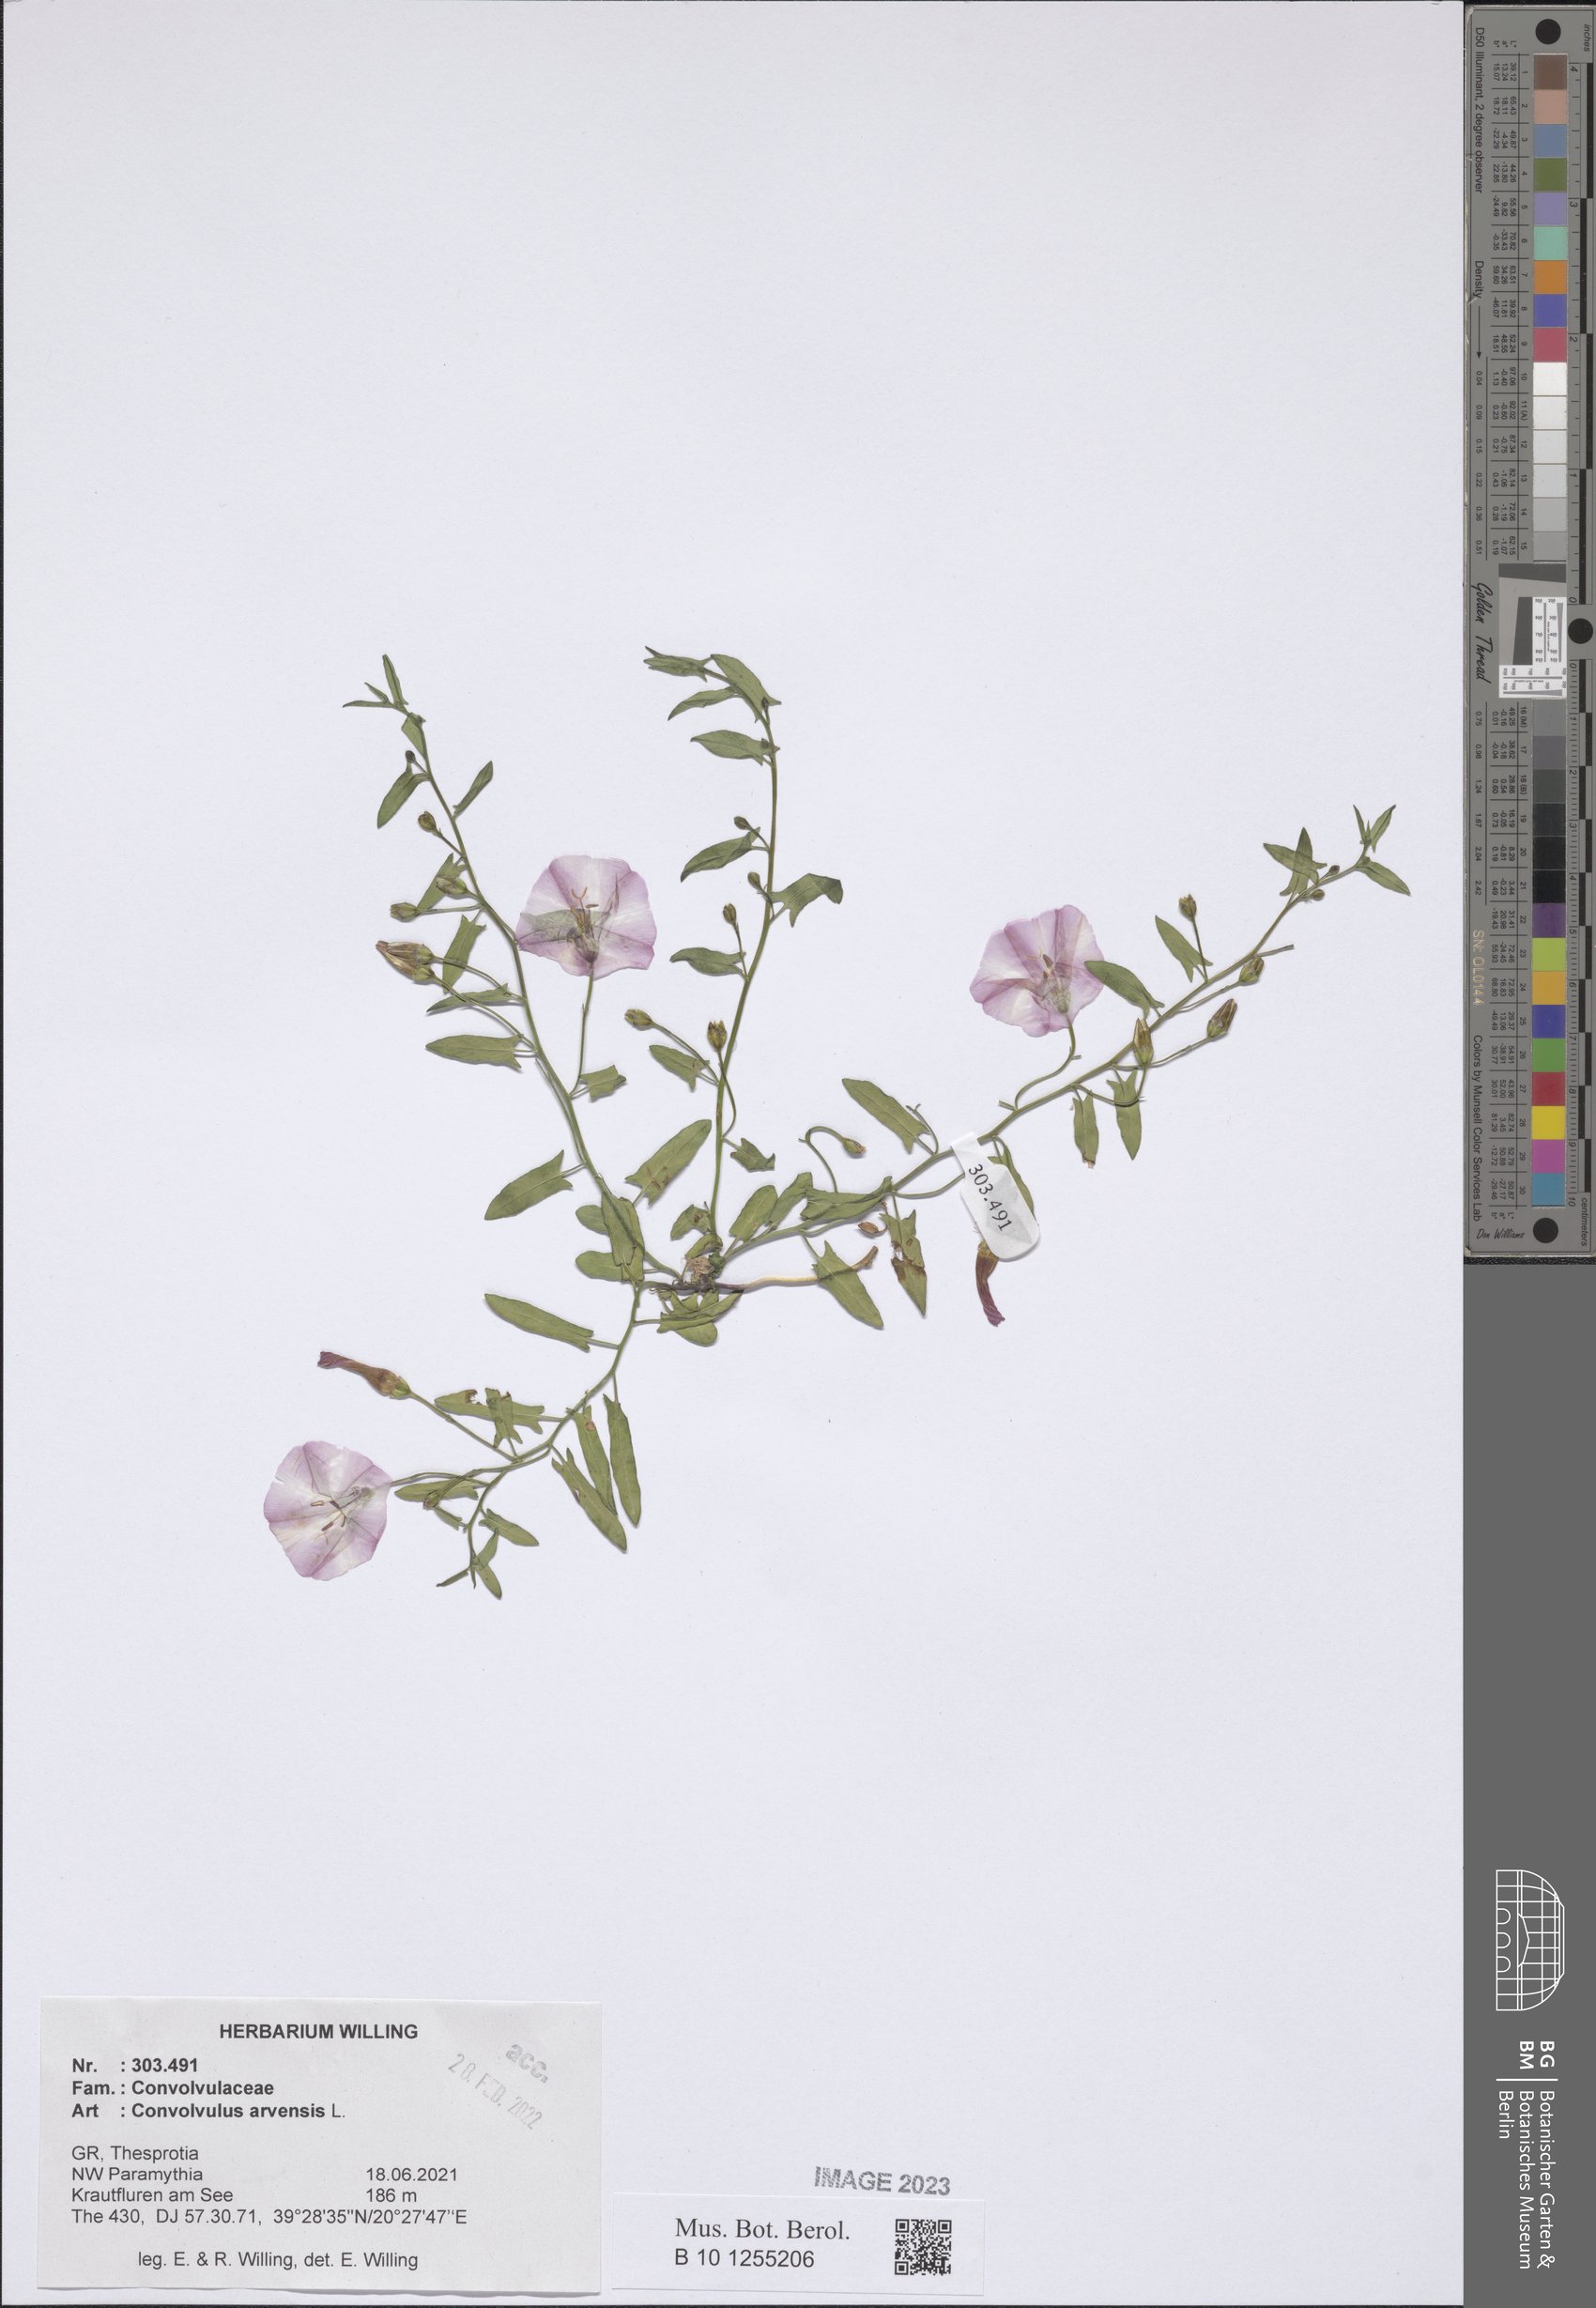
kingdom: Plantae
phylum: Tracheophyta
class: Magnoliopsida
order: Solanales
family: Convolvulaceae
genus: Convolvulus
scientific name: Convolvulus arvensis
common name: Field bindweed
